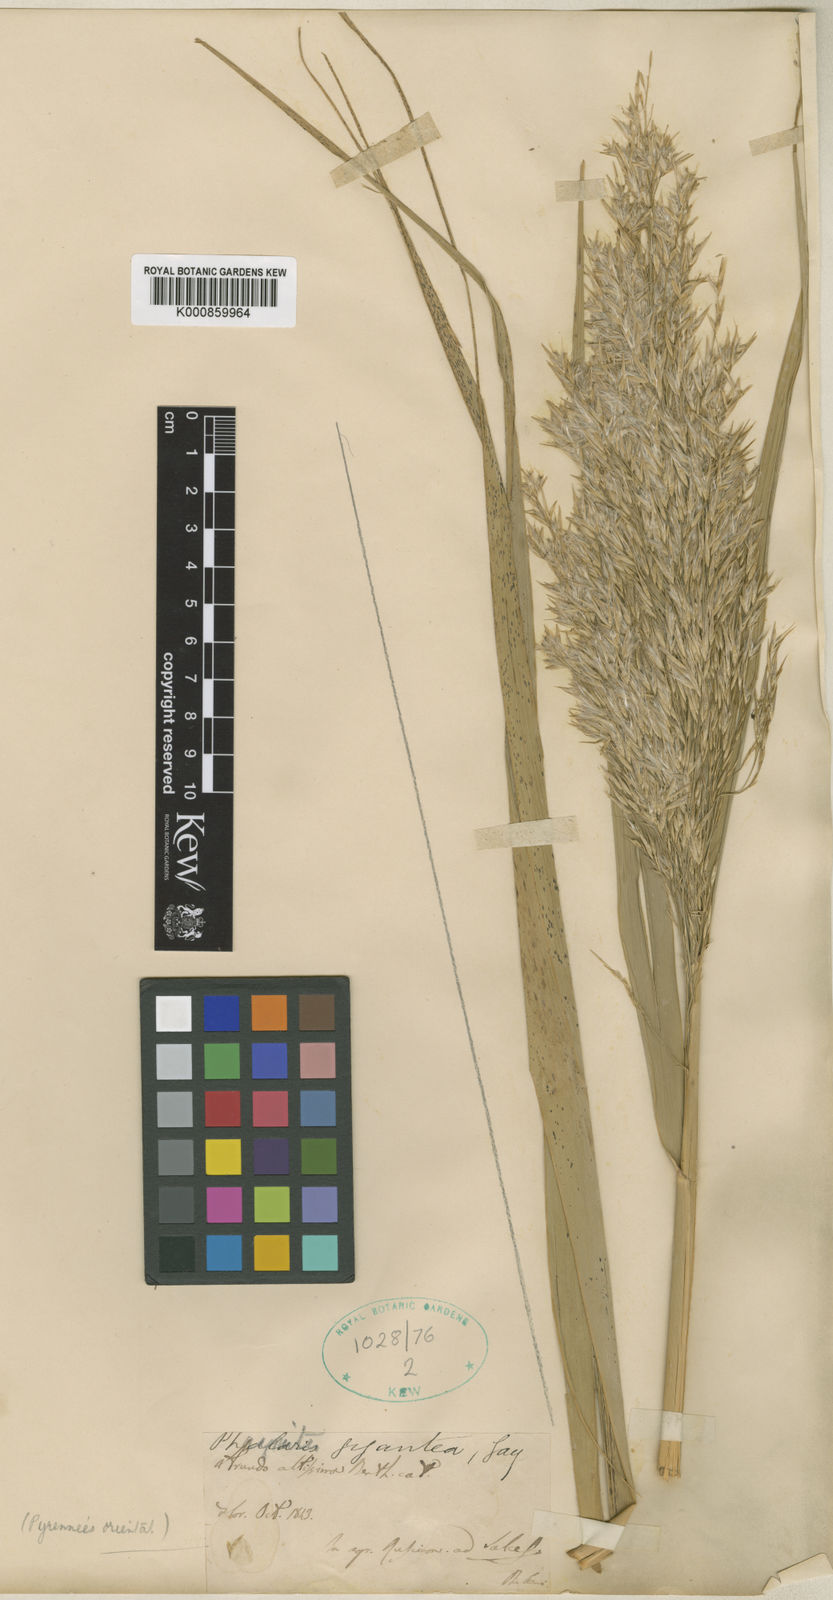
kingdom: Plantae
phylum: Tracheophyta
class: Liliopsida
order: Poales
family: Poaceae
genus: Phragmites
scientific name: Phragmites australis
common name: Common reed
